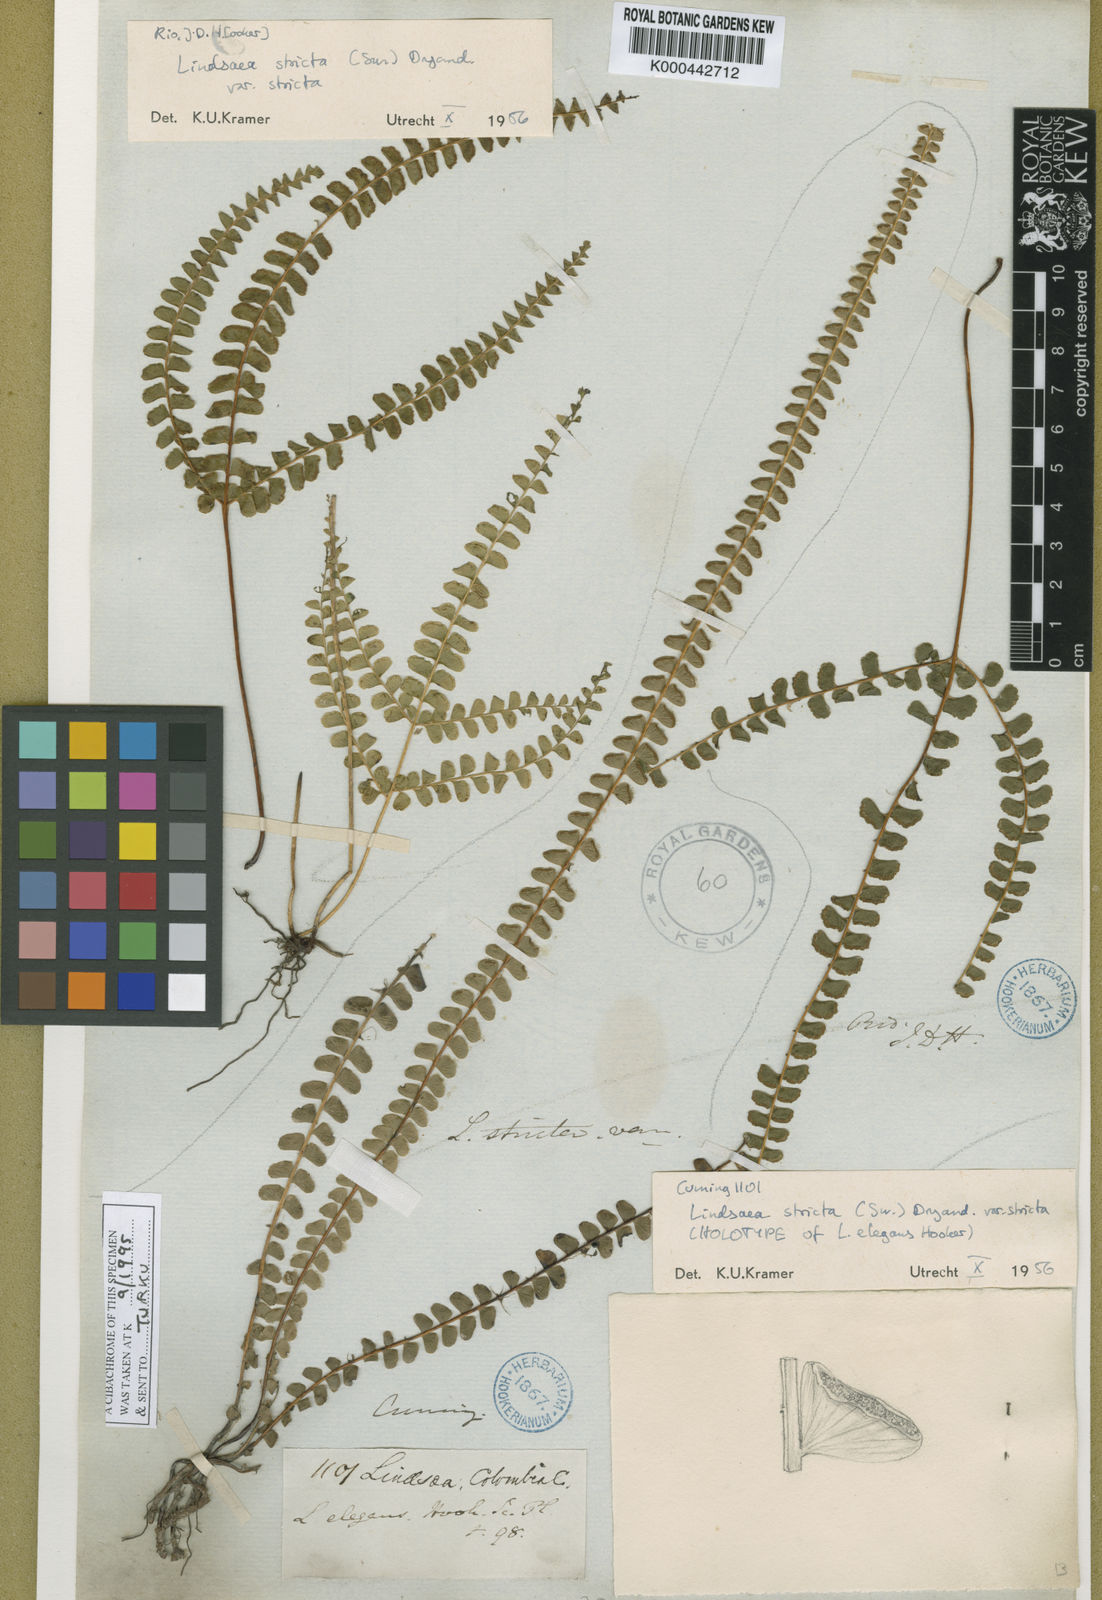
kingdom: Plantae
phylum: Tracheophyta
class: Polypodiopsida
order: Polypodiales
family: Lindsaeaceae
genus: Lindsaea
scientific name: Lindsaea stricta
